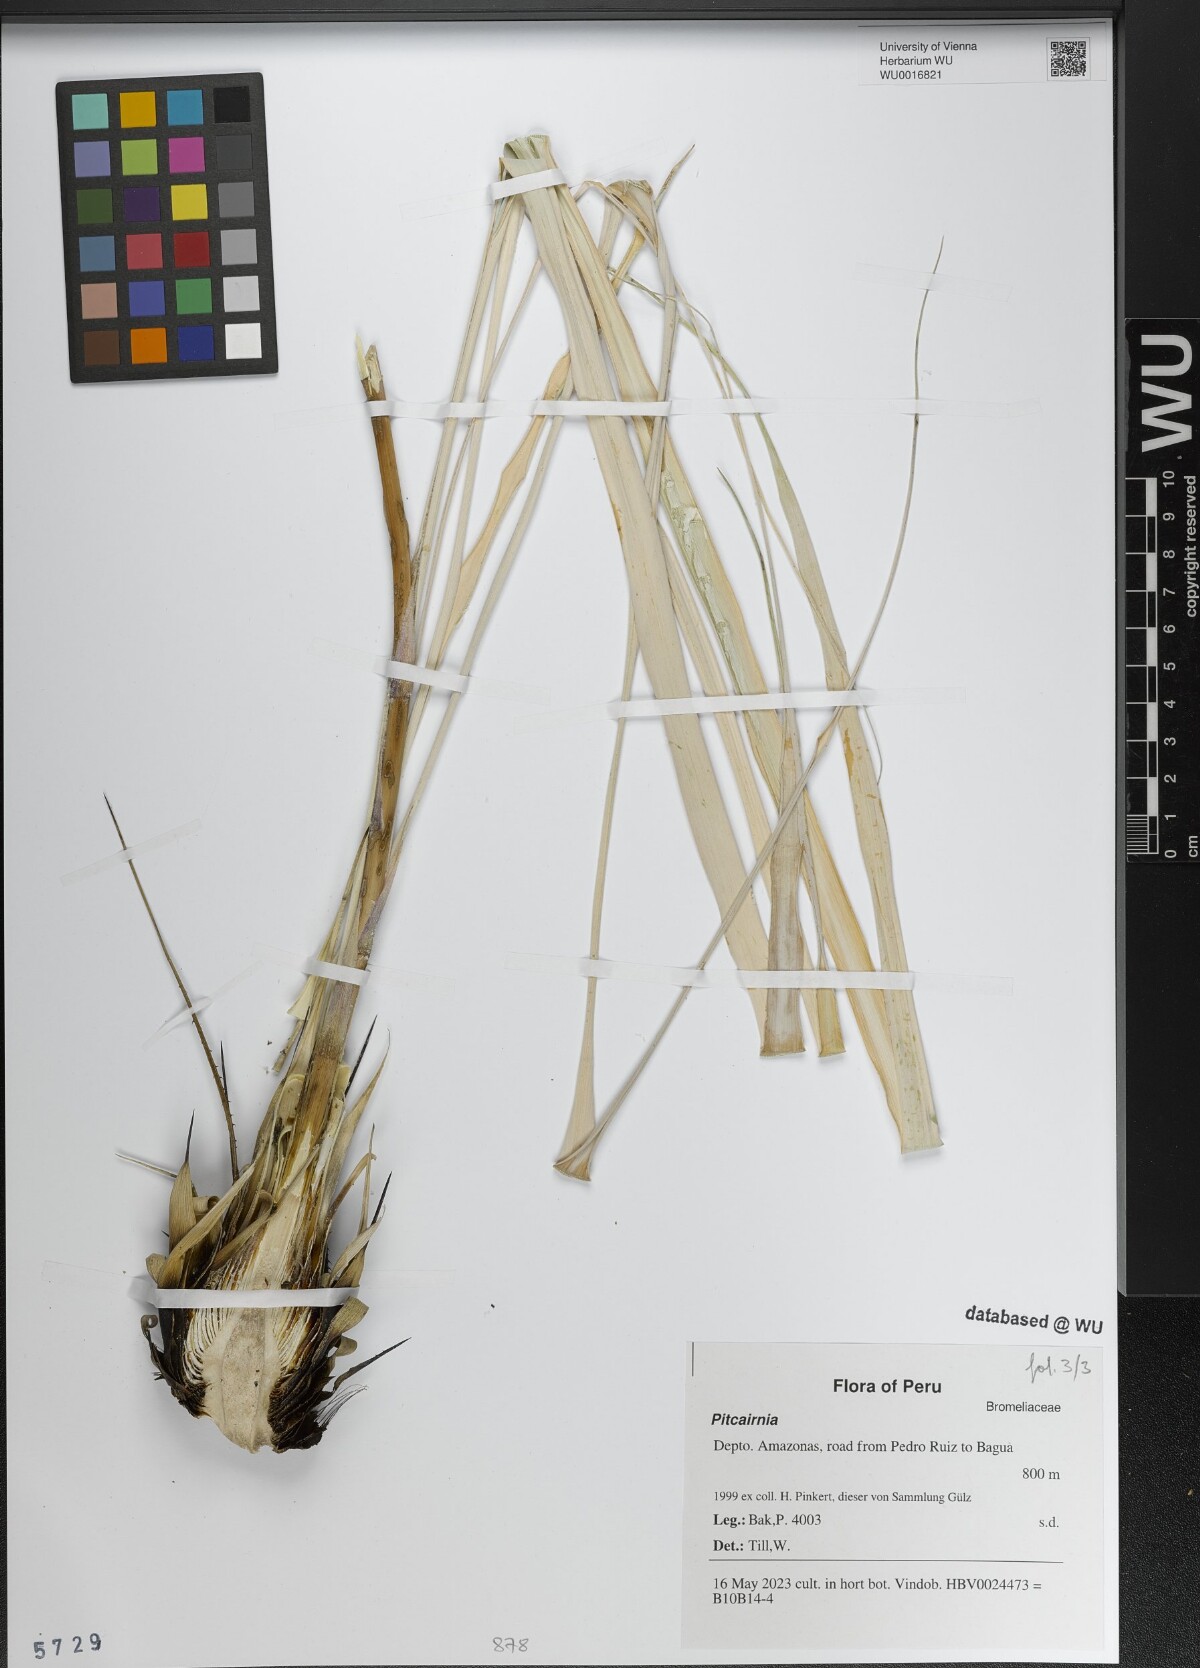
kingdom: Plantae
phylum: Tracheophyta
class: Liliopsida
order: Poales
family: Bromeliaceae
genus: Pitcairnia
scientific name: Pitcairnia
